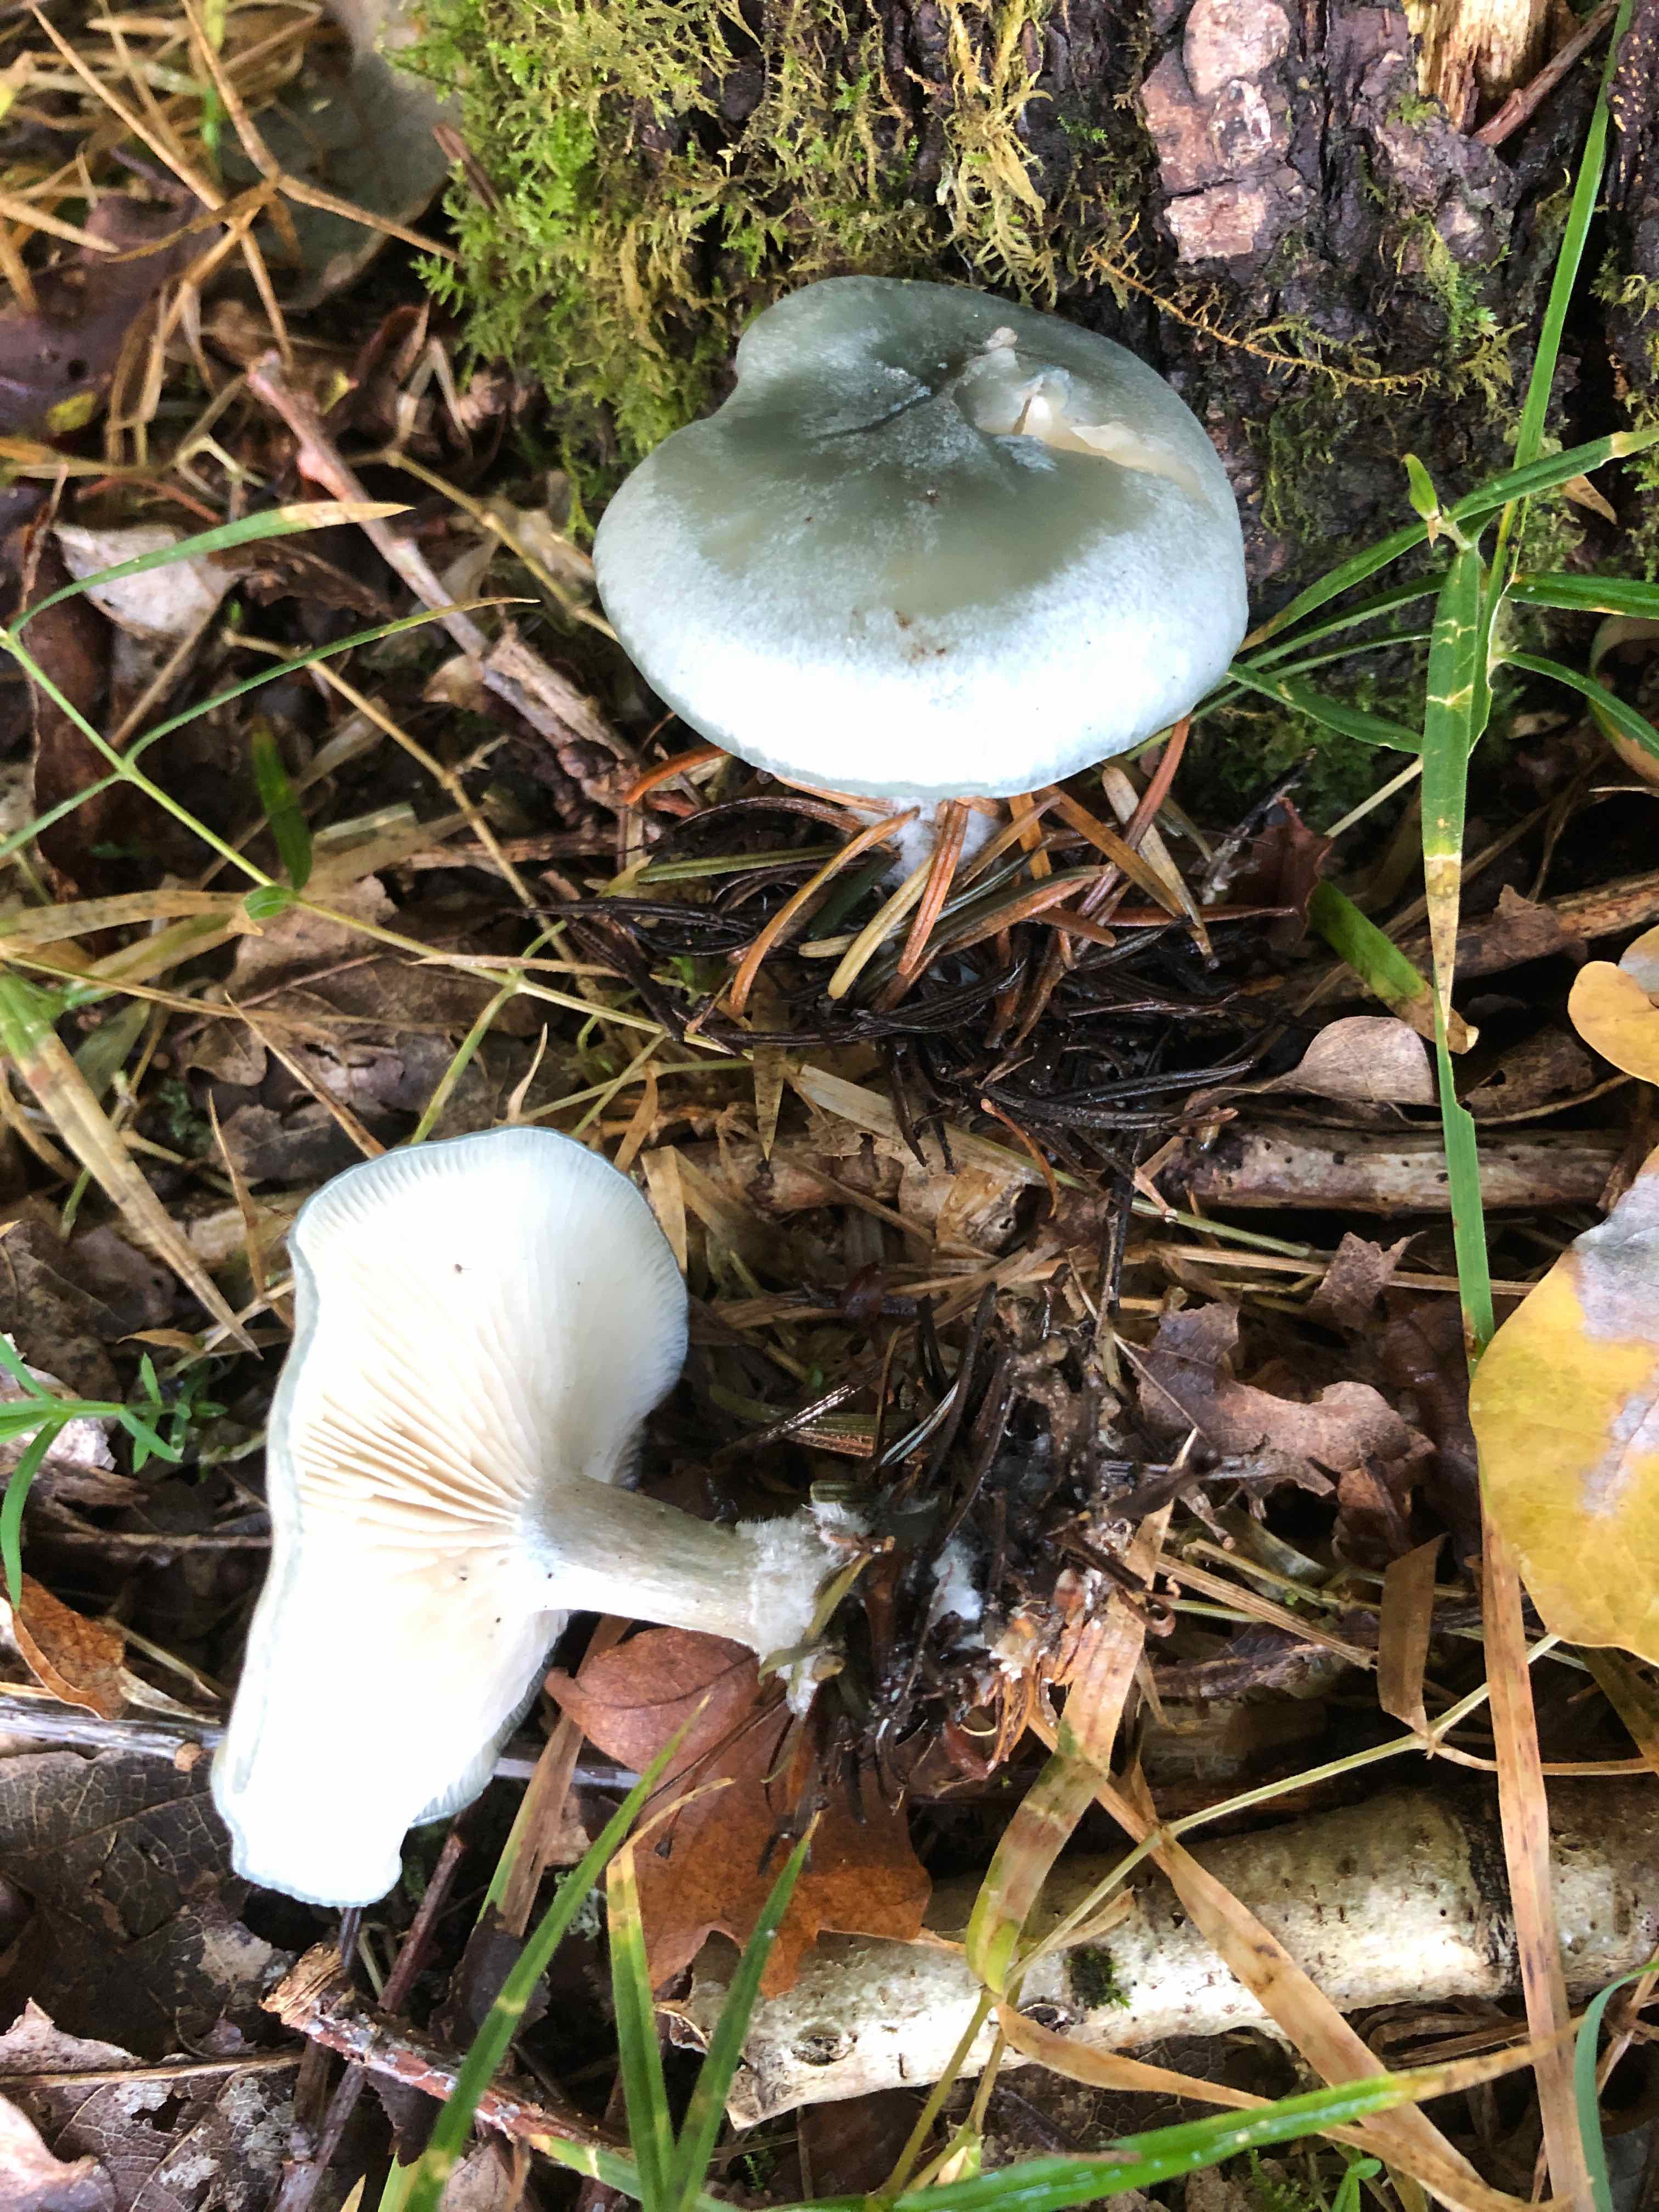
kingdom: Fungi
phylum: Basidiomycota
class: Agaricomycetes
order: Agaricales
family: Tricholomataceae
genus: Clitocybe
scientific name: Clitocybe odora
